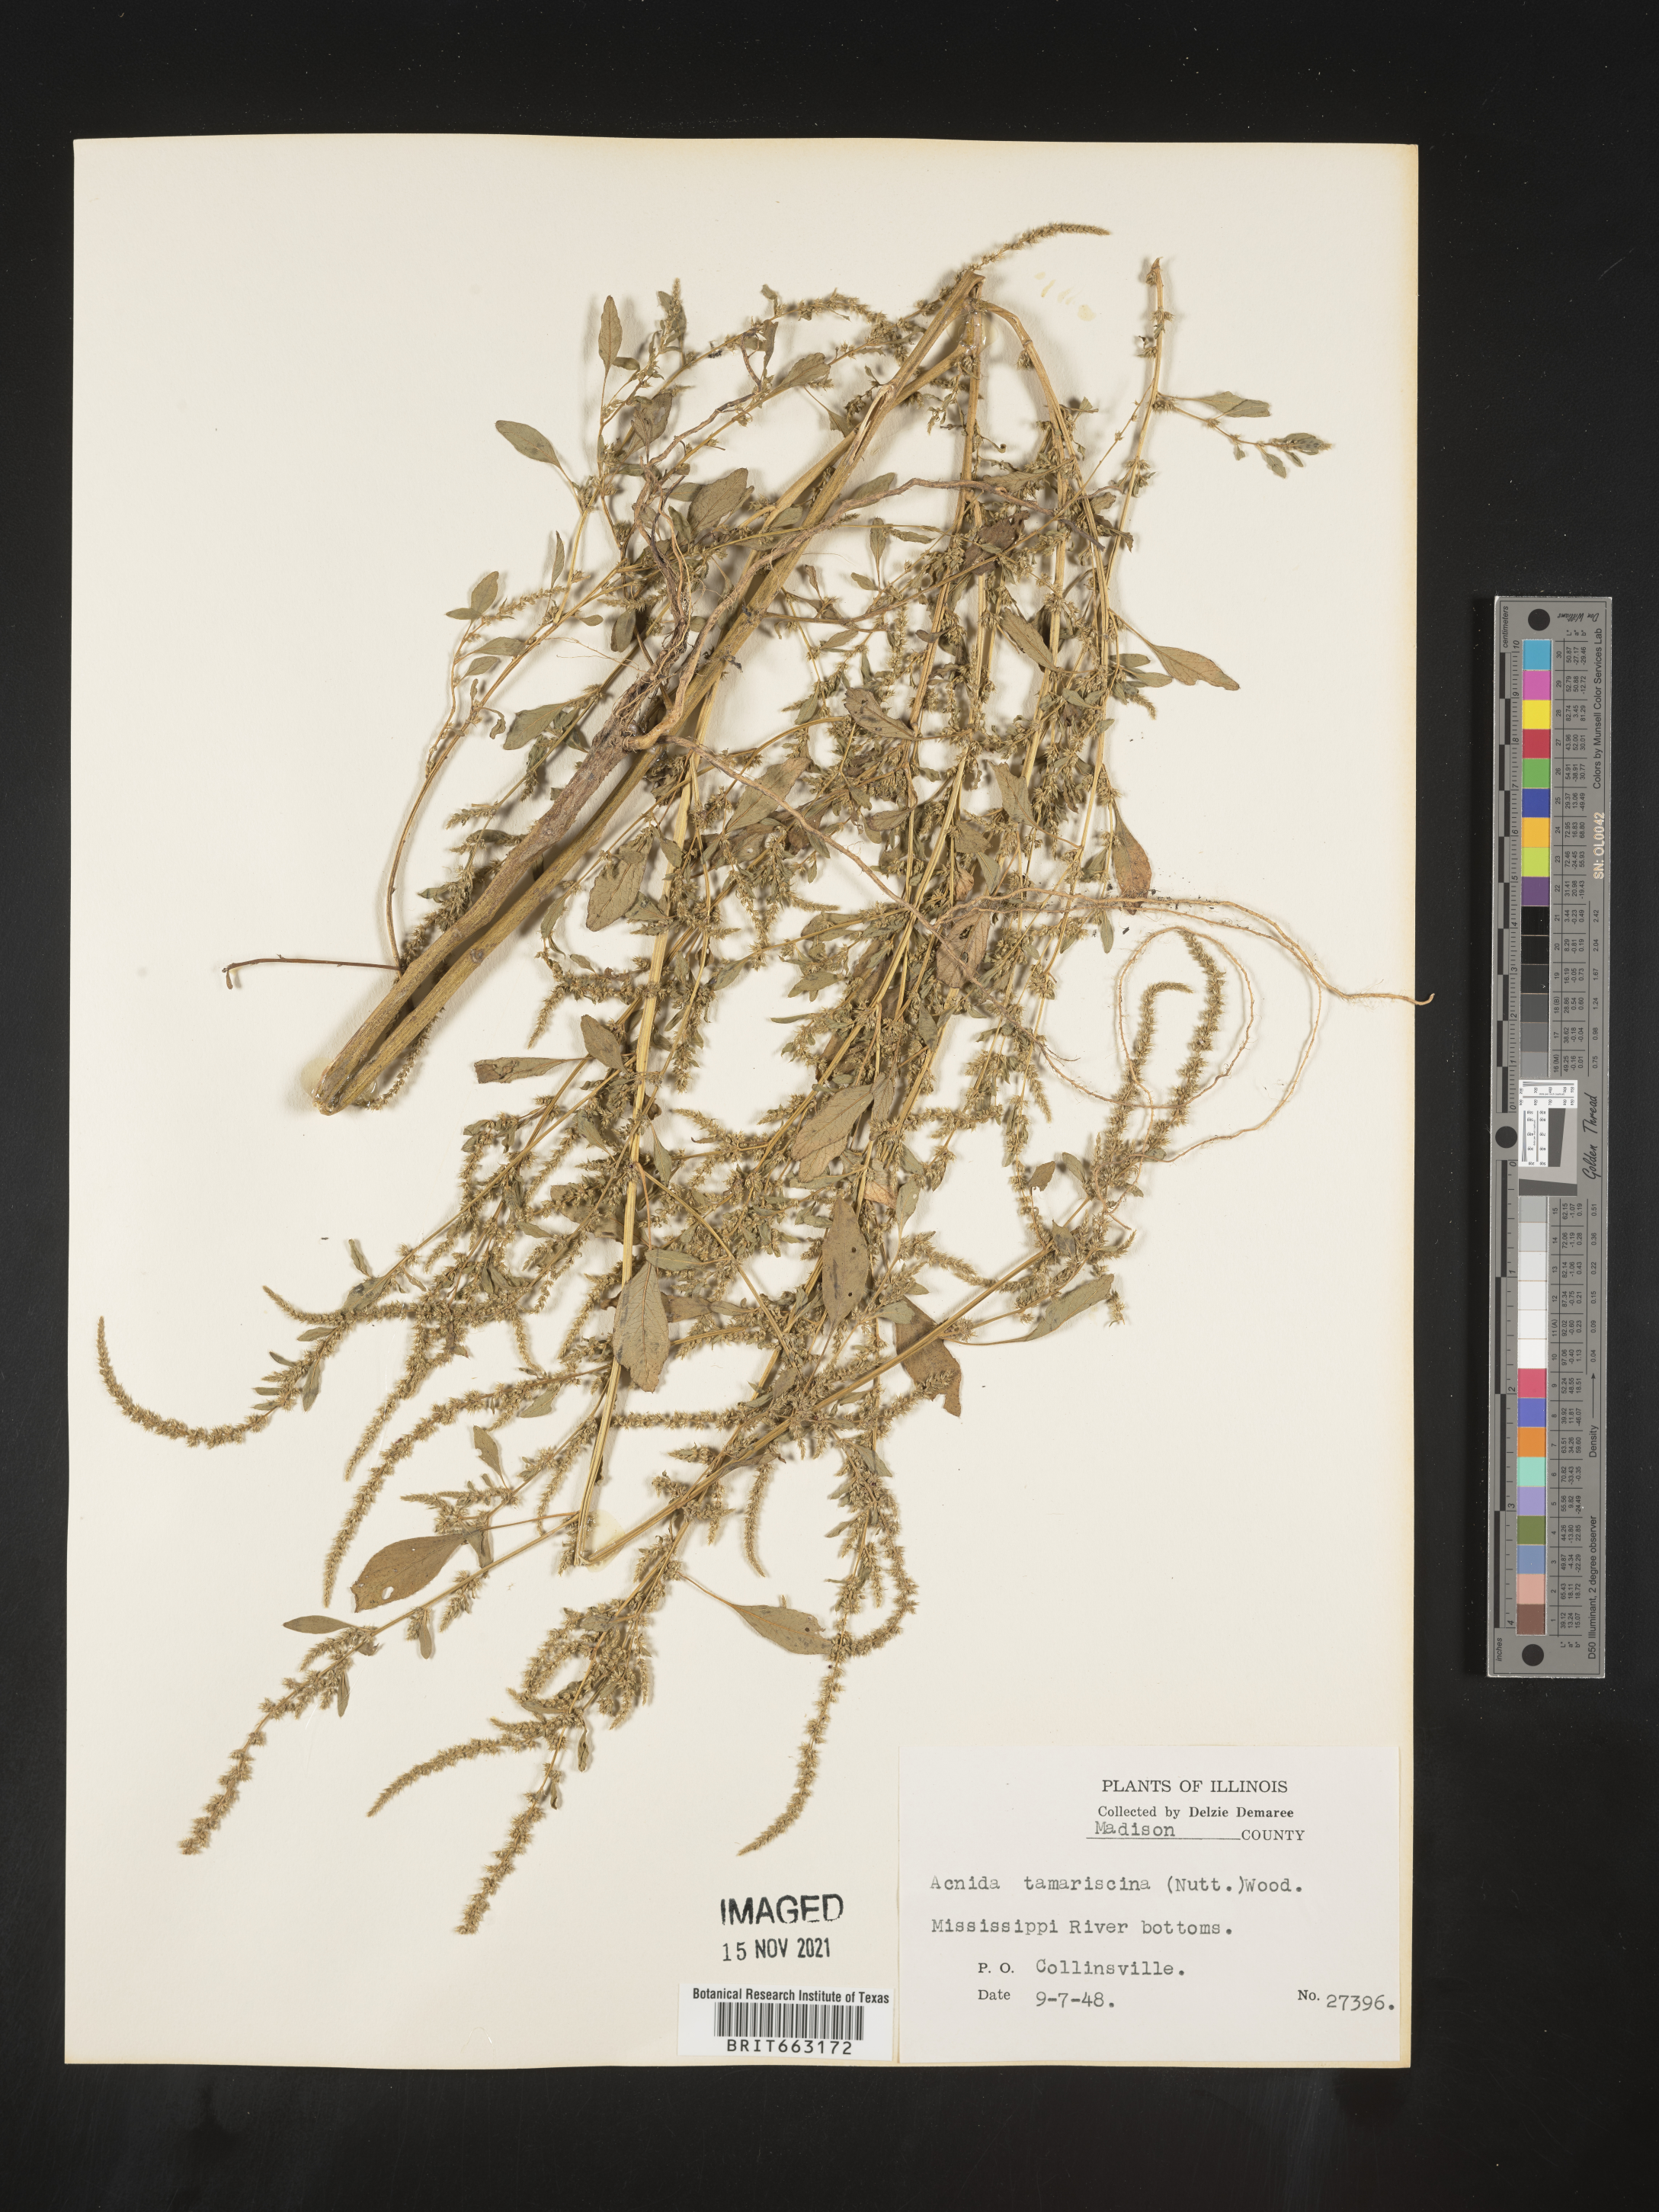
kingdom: Plantae
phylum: Tracheophyta
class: Magnoliopsida
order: Caryophyllales
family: Amaranthaceae
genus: Amaranthus
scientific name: Amaranthus tamariscinus
